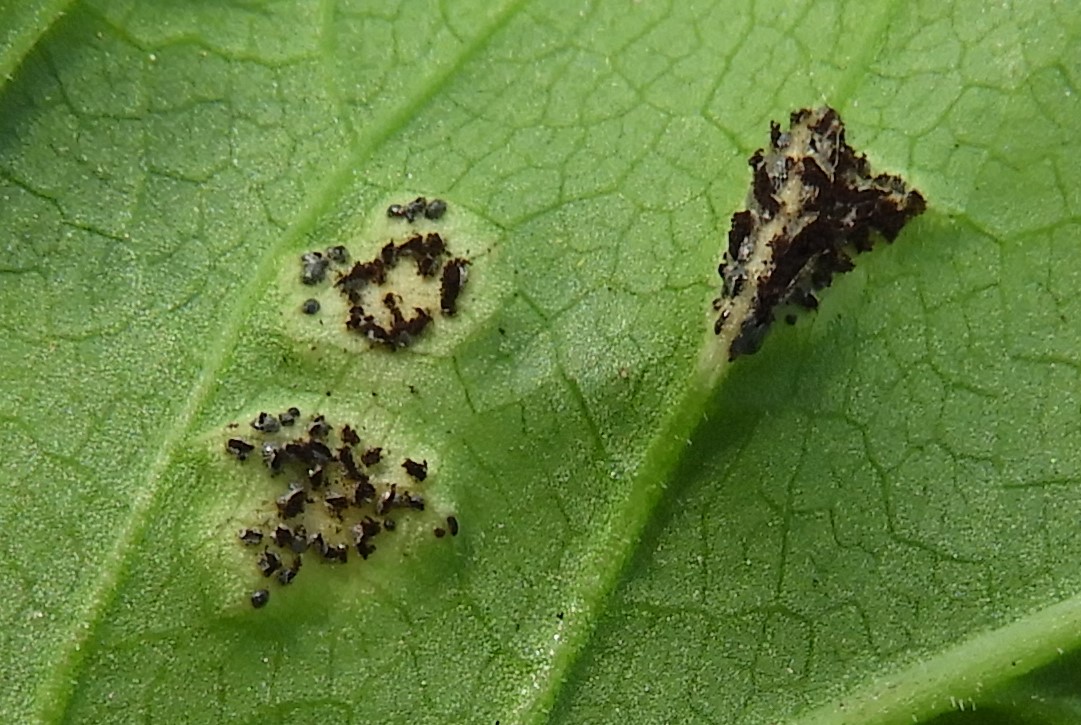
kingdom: Fungi
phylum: Basidiomycota
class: Pucciniomycetes
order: Pucciniales
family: Pucciniaceae
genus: Puccinia
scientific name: Puccinia
